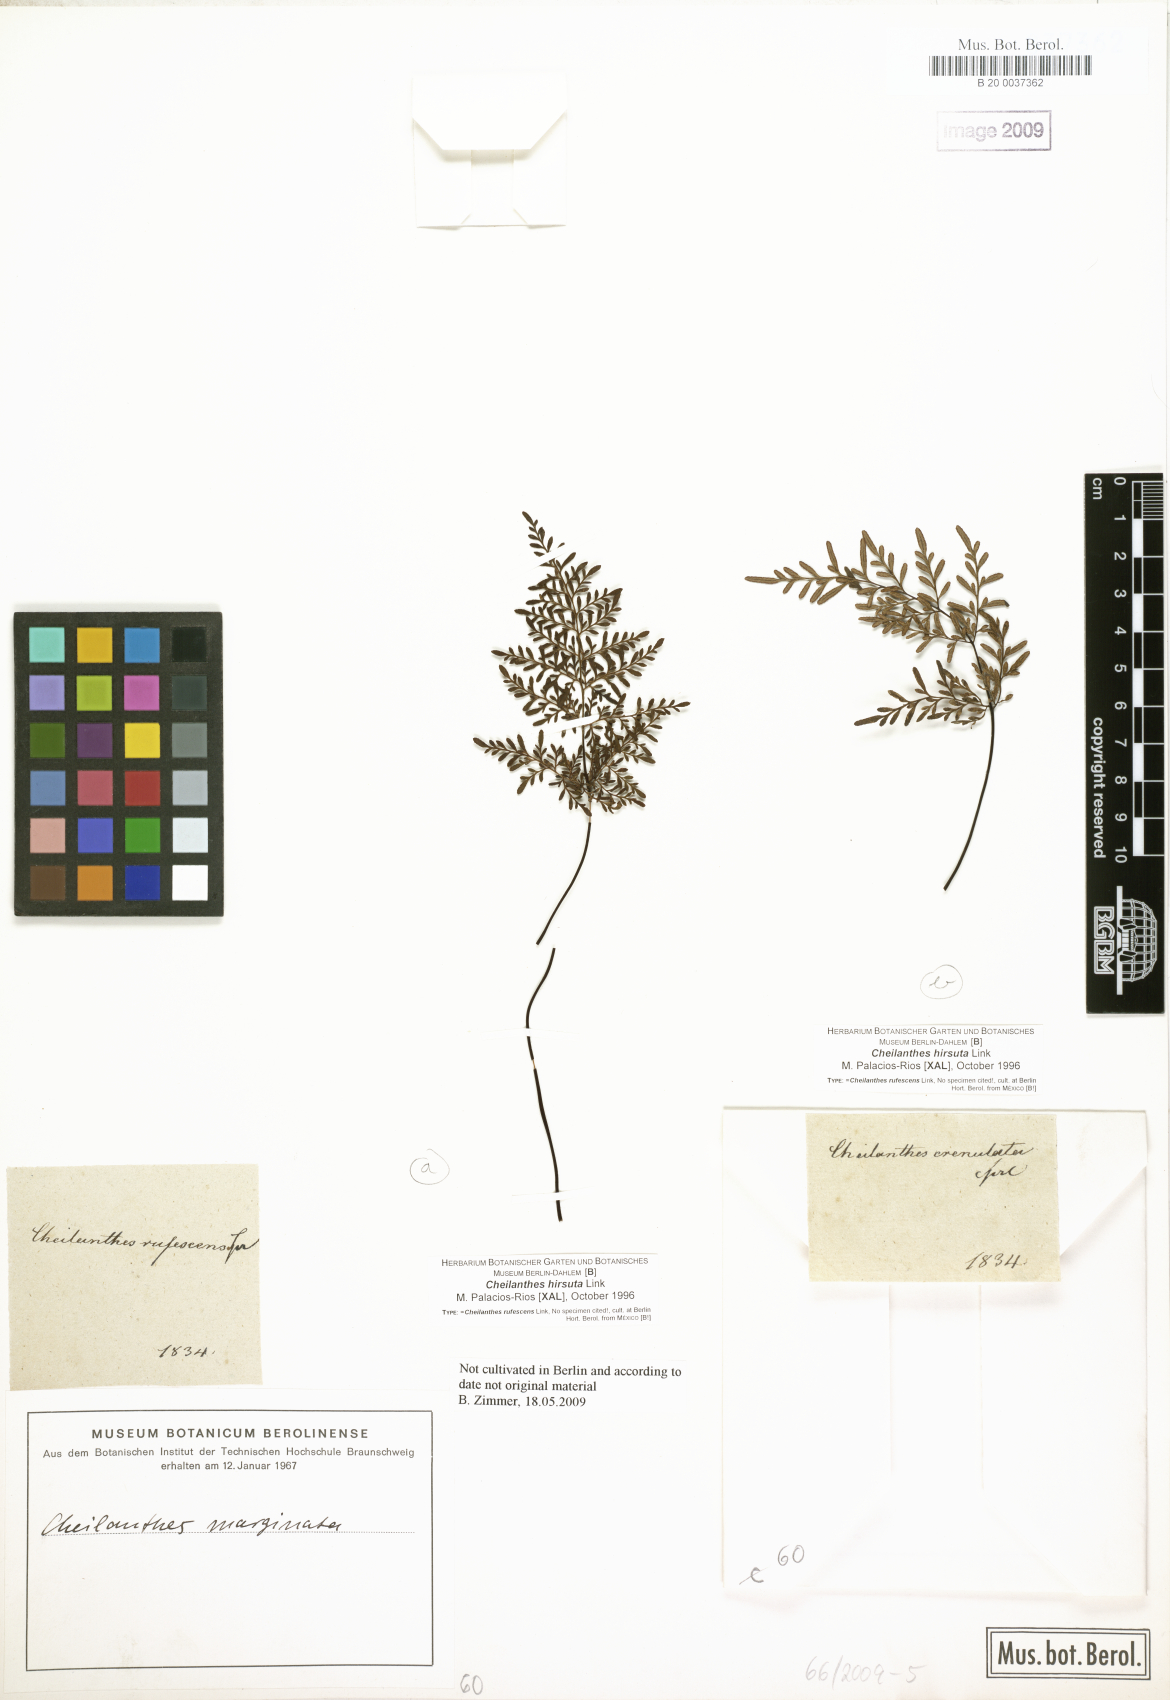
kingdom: Plantae
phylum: Tracheophyta
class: Polypodiopsida
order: Polypodiales
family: Pteridaceae
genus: Gaga
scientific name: Gaga hirsuta
